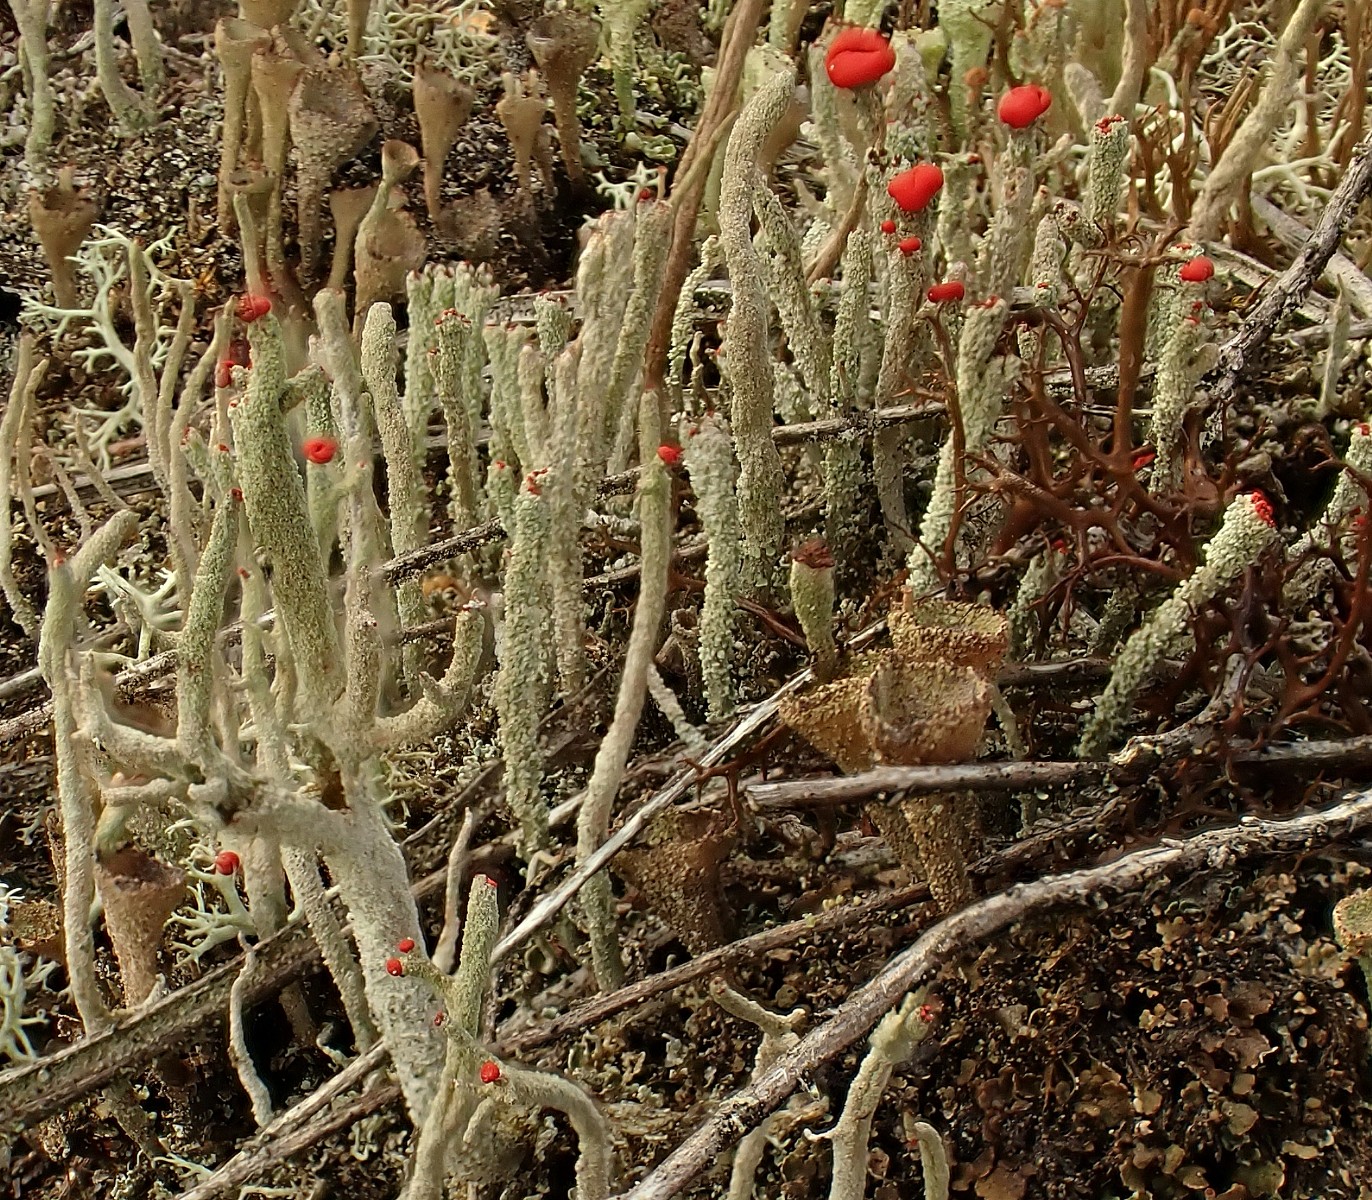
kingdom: Fungi
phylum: Ascomycota
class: Lecanoromycetes
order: Lecanorales
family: Cladoniaceae
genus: Cladonia
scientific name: Cladonia floerkeana
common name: lakrød bægerlav
